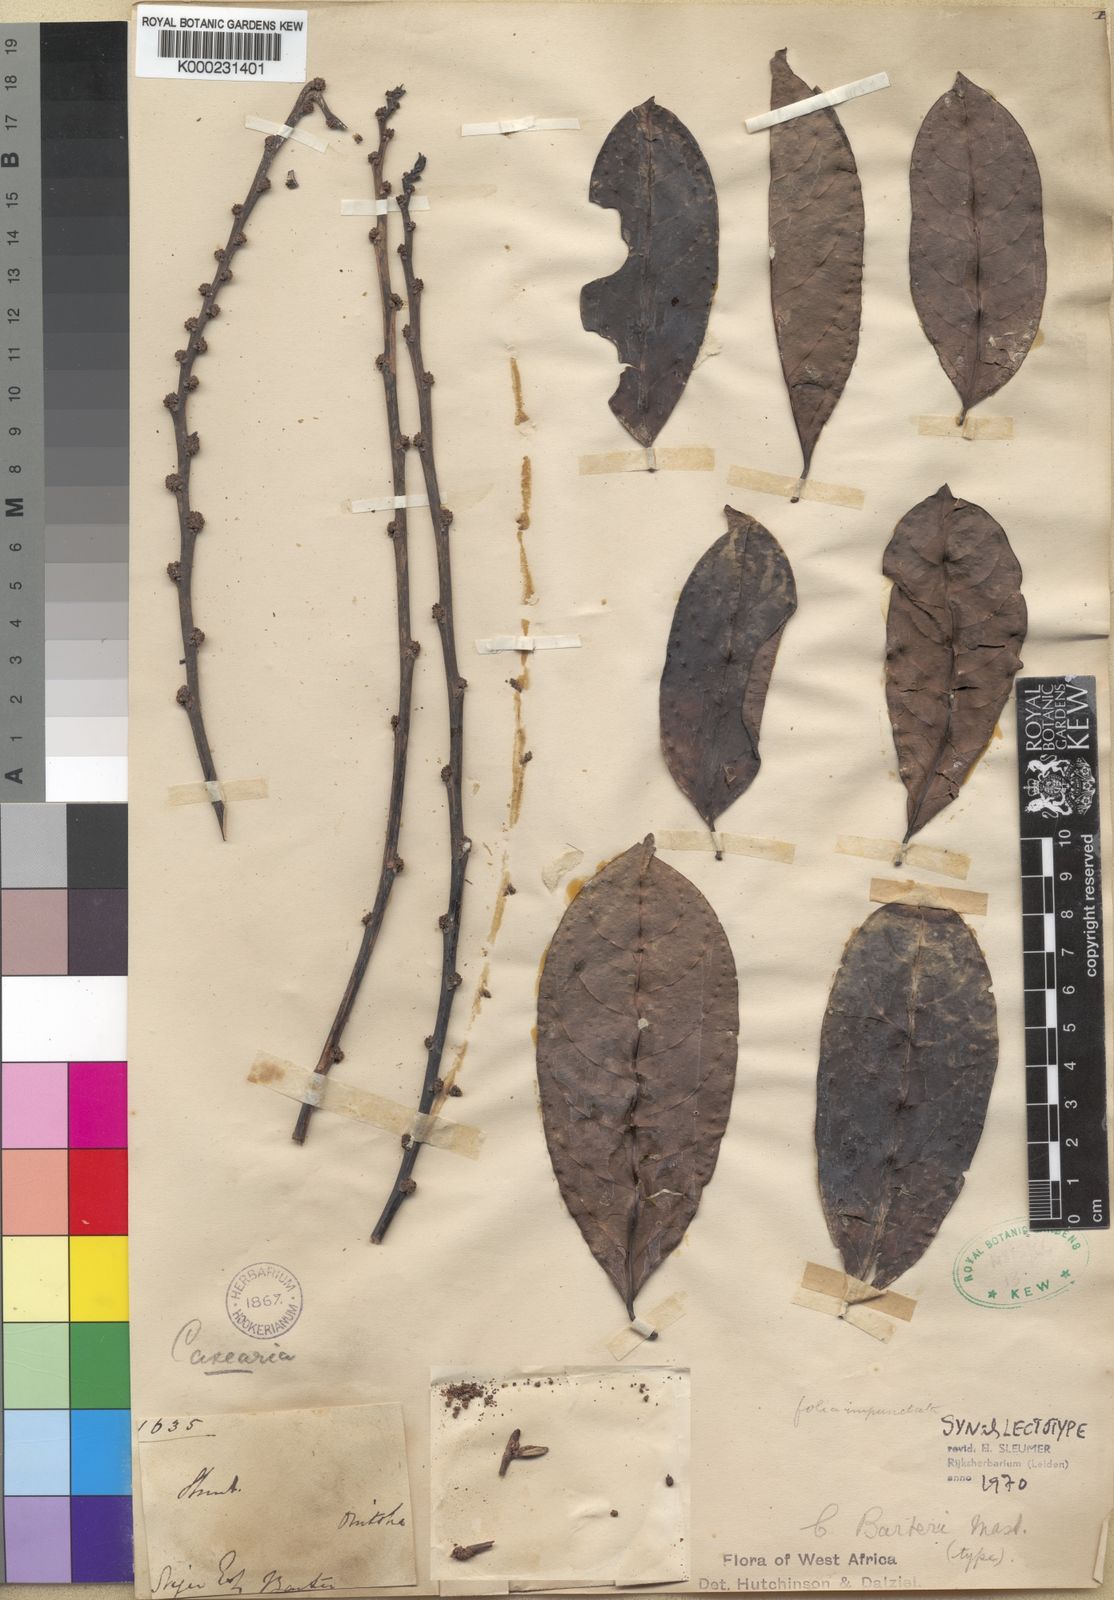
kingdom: Plantae
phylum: Tracheophyta
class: Magnoliopsida
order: Malpighiales
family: Salicaceae
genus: Casearia
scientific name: Casearia barteri
